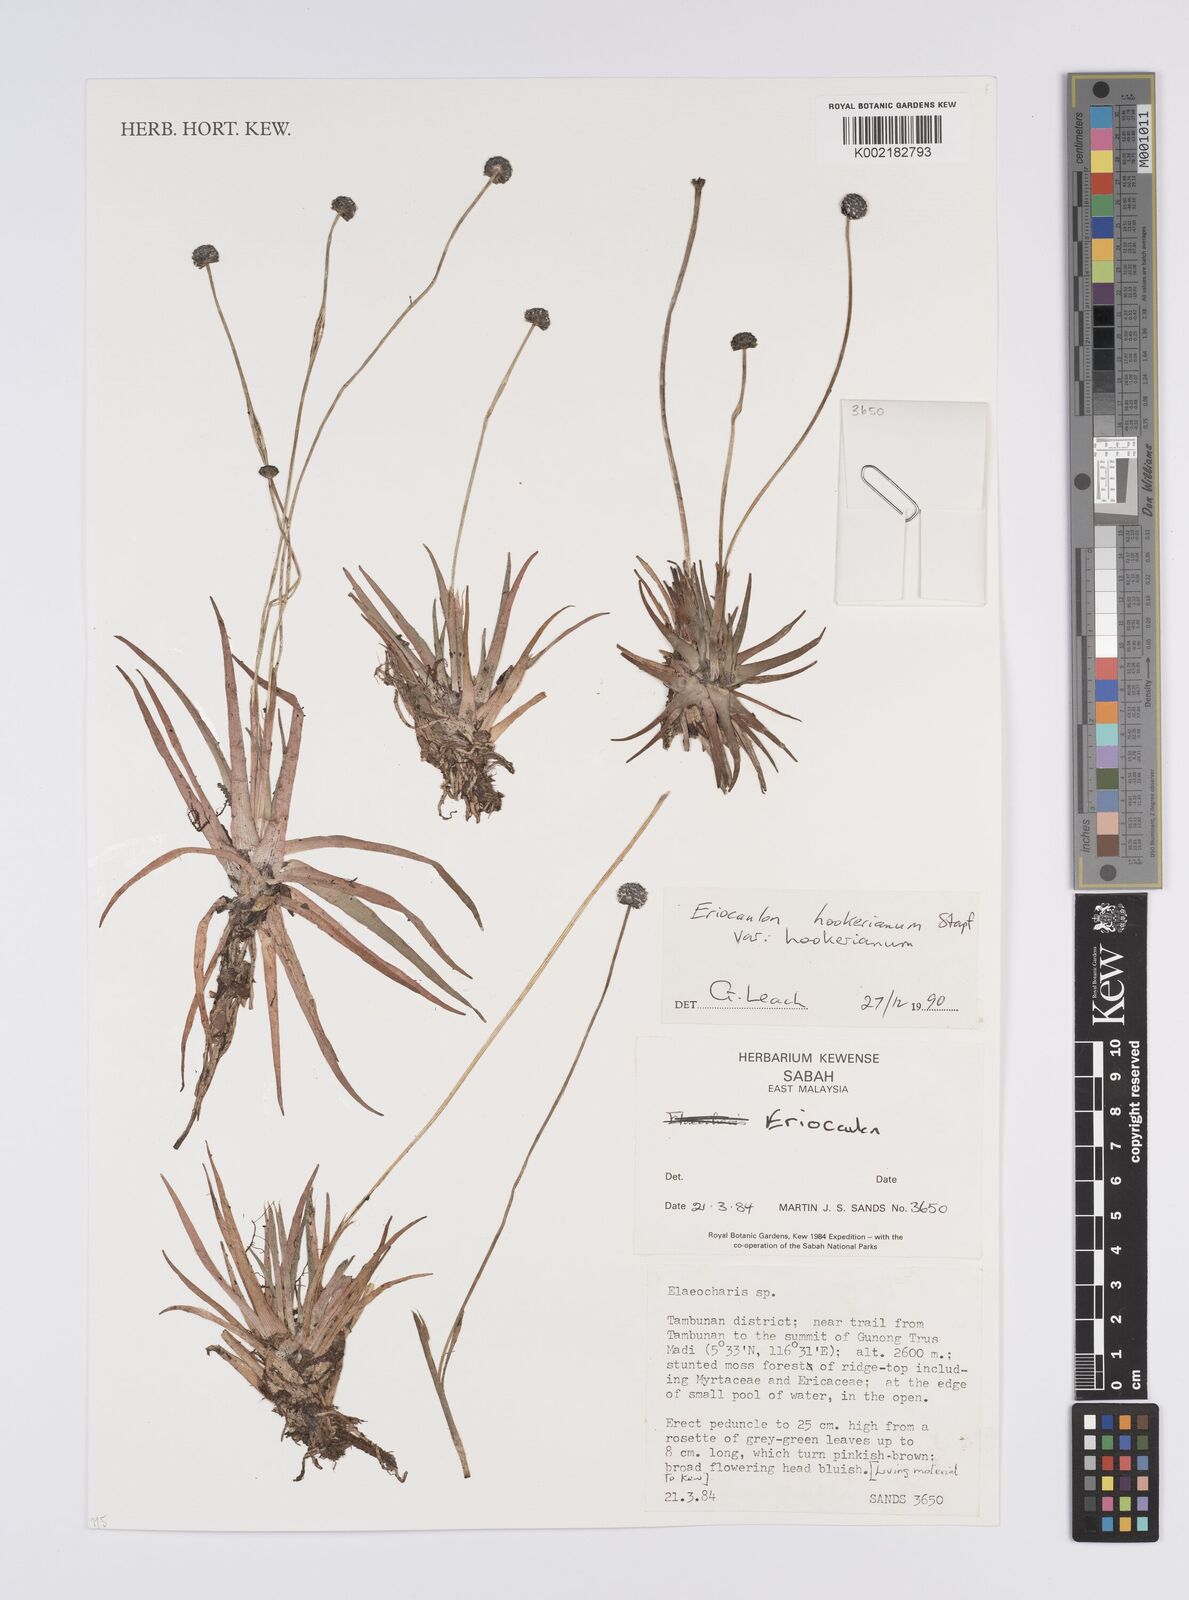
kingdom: Plantae
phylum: Tracheophyta
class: Liliopsida
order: Poales
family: Eriocaulaceae
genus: Eriocaulon
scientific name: Eriocaulon hookerianum
